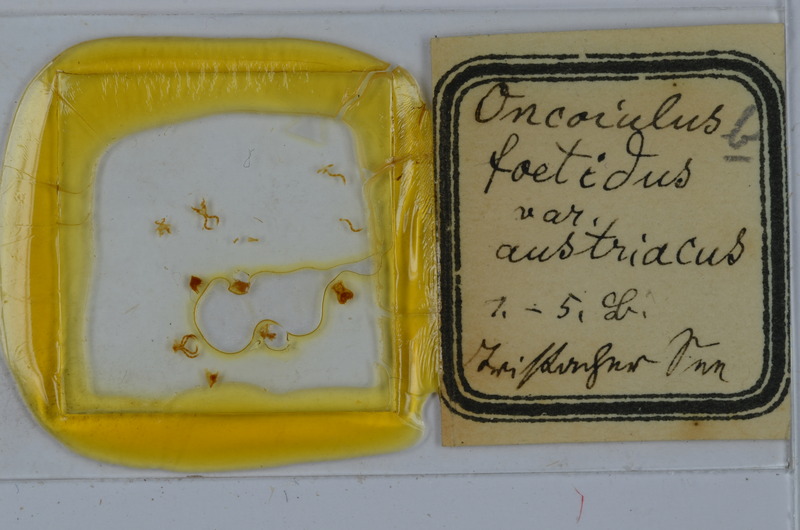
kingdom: Animalia
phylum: Arthropoda
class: Diplopoda
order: Julida
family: Julidae
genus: Unciger
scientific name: Unciger foetidus
